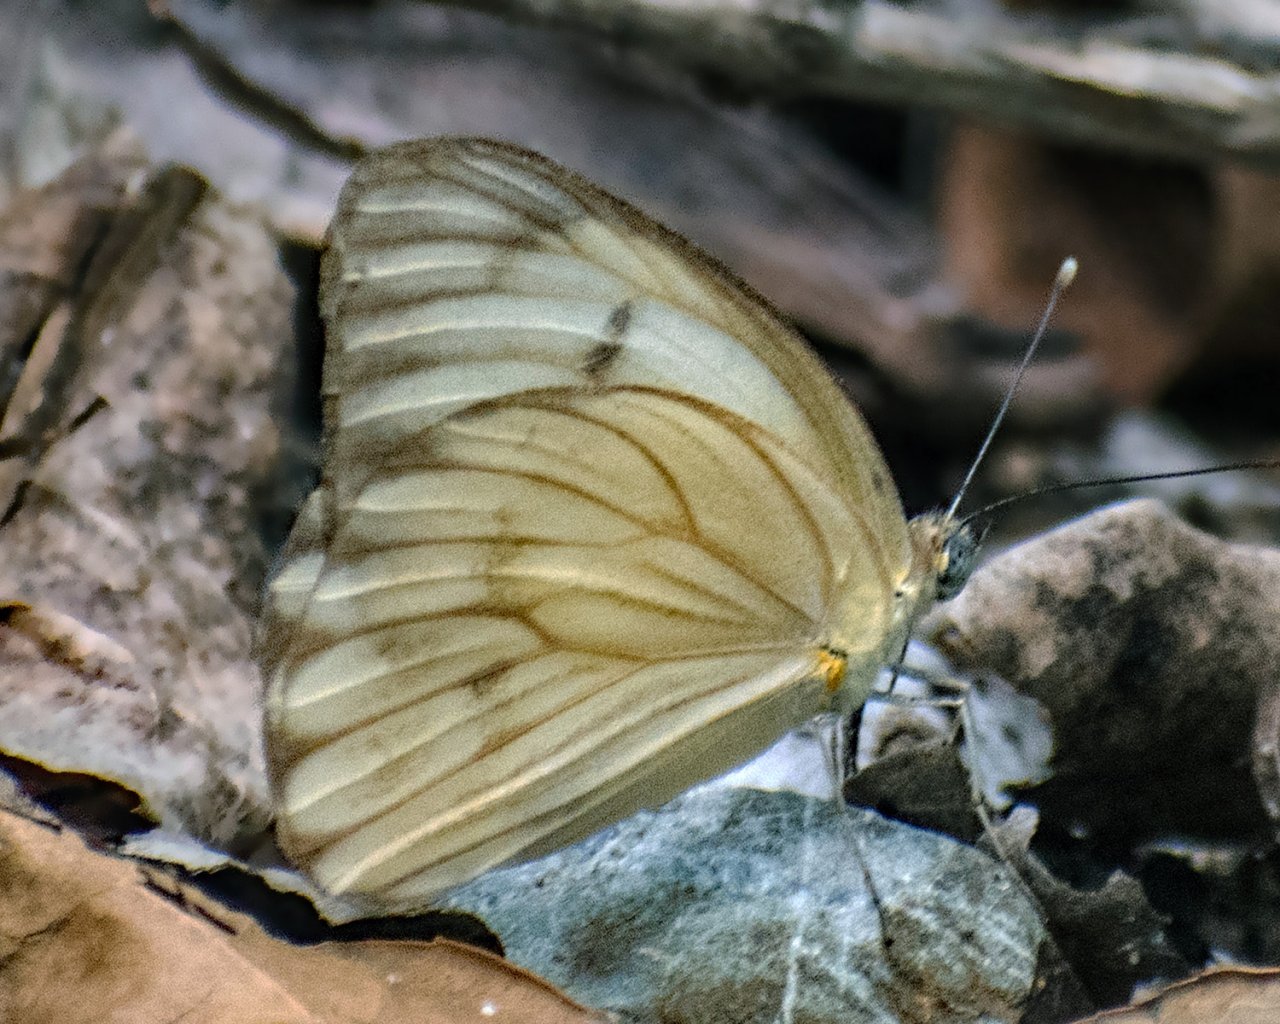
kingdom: Animalia
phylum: Arthropoda
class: Insecta
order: Lepidoptera
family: Pieridae
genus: Ascia
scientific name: Ascia monuste
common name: Great Southern White
